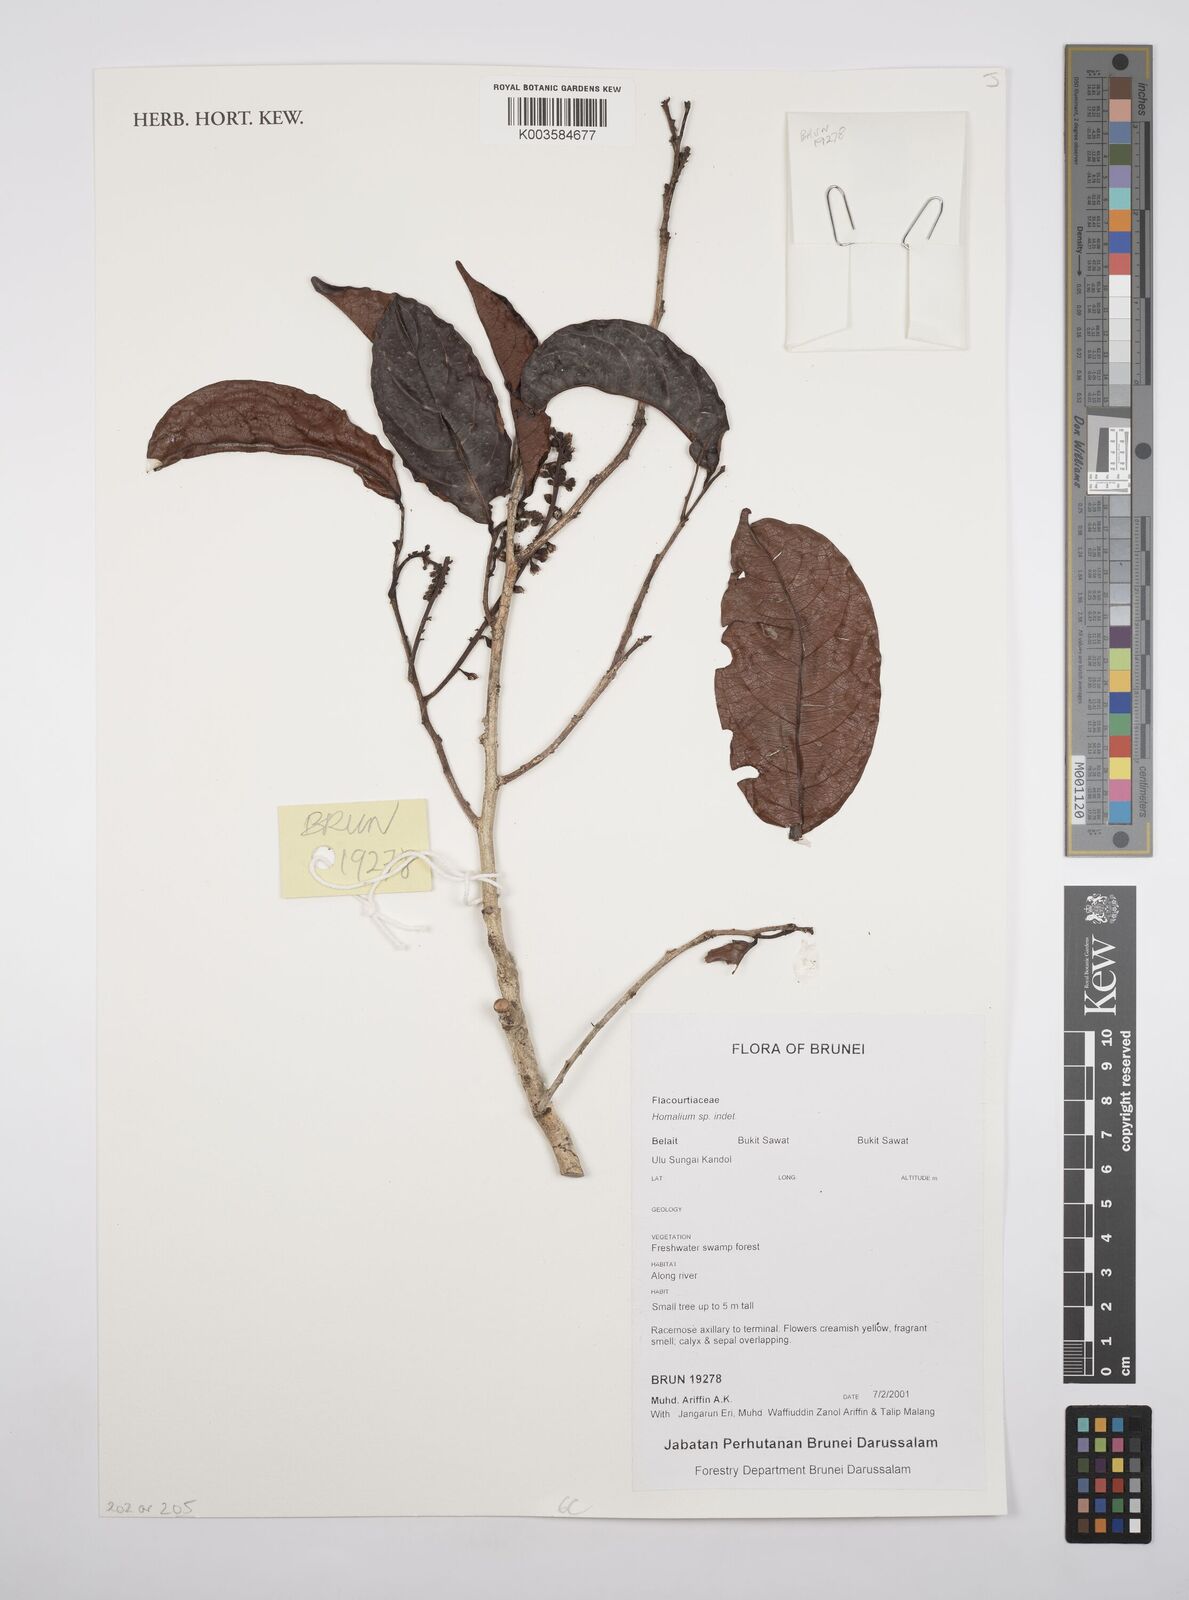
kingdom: Plantae
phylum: Tracheophyta
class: Magnoliopsida
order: Malpighiales
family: Salicaceae
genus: Homalium
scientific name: Homalium
